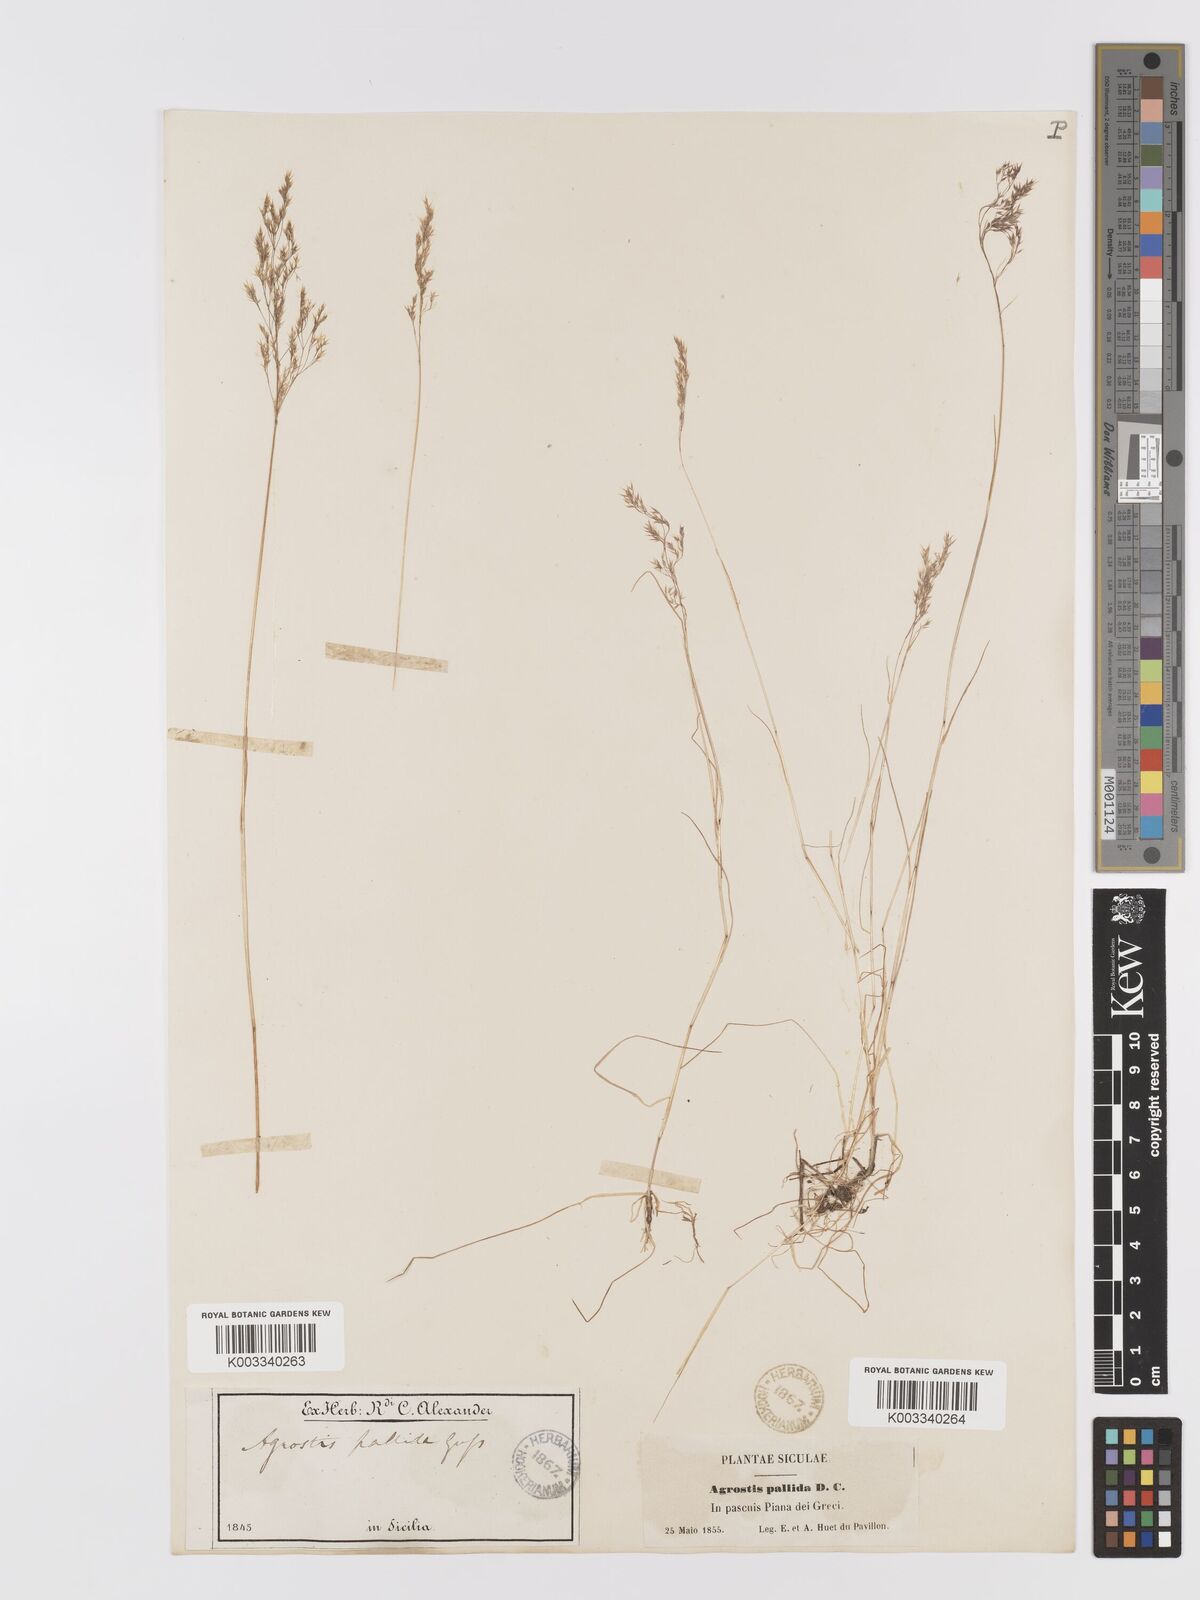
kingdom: Plantae
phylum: Tracheophyta
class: Liliopsida
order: Poales
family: Poaceae
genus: Agrostis
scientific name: Agrostis pourretii
